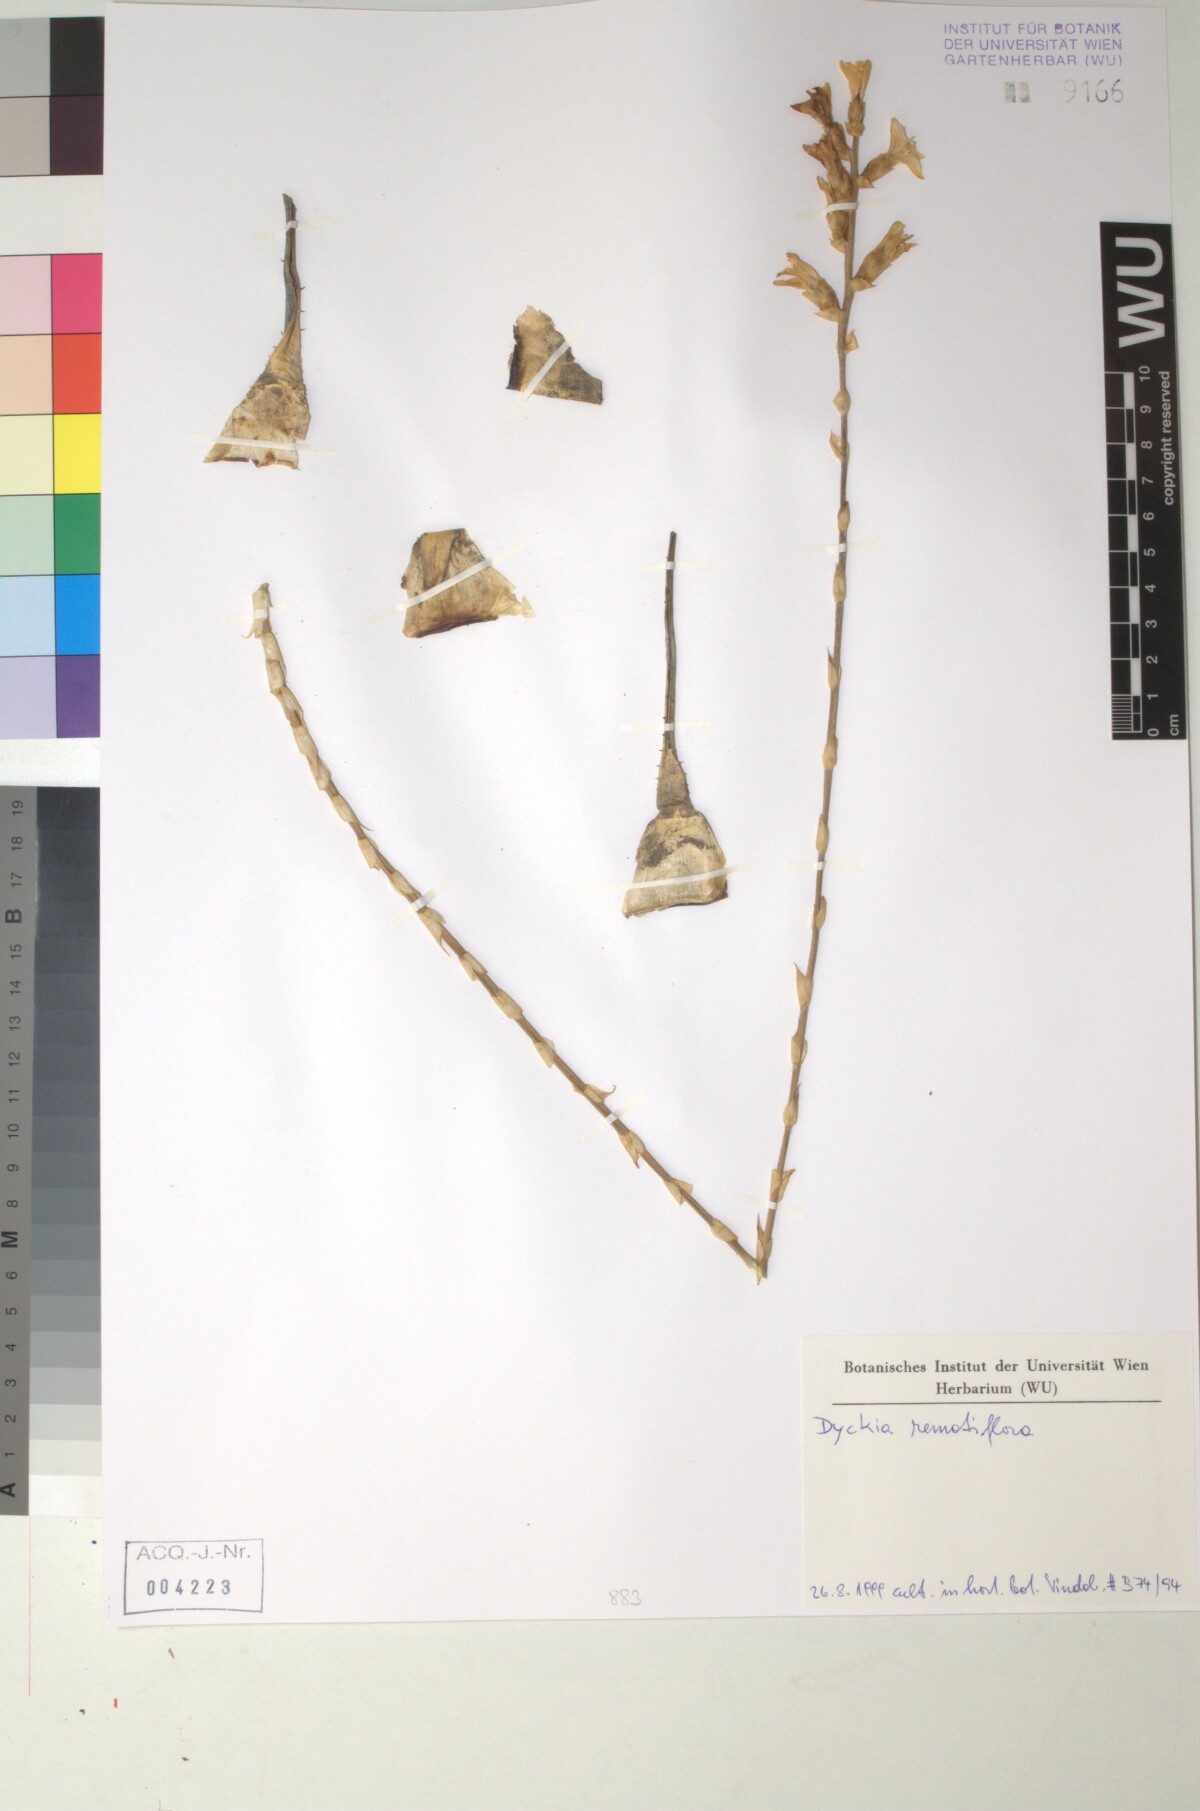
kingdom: Plantae
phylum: Tracheophyta
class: Liliopsida
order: Poales
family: Bromeliaceae
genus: Dyckia
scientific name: Dyckia remotiflora
